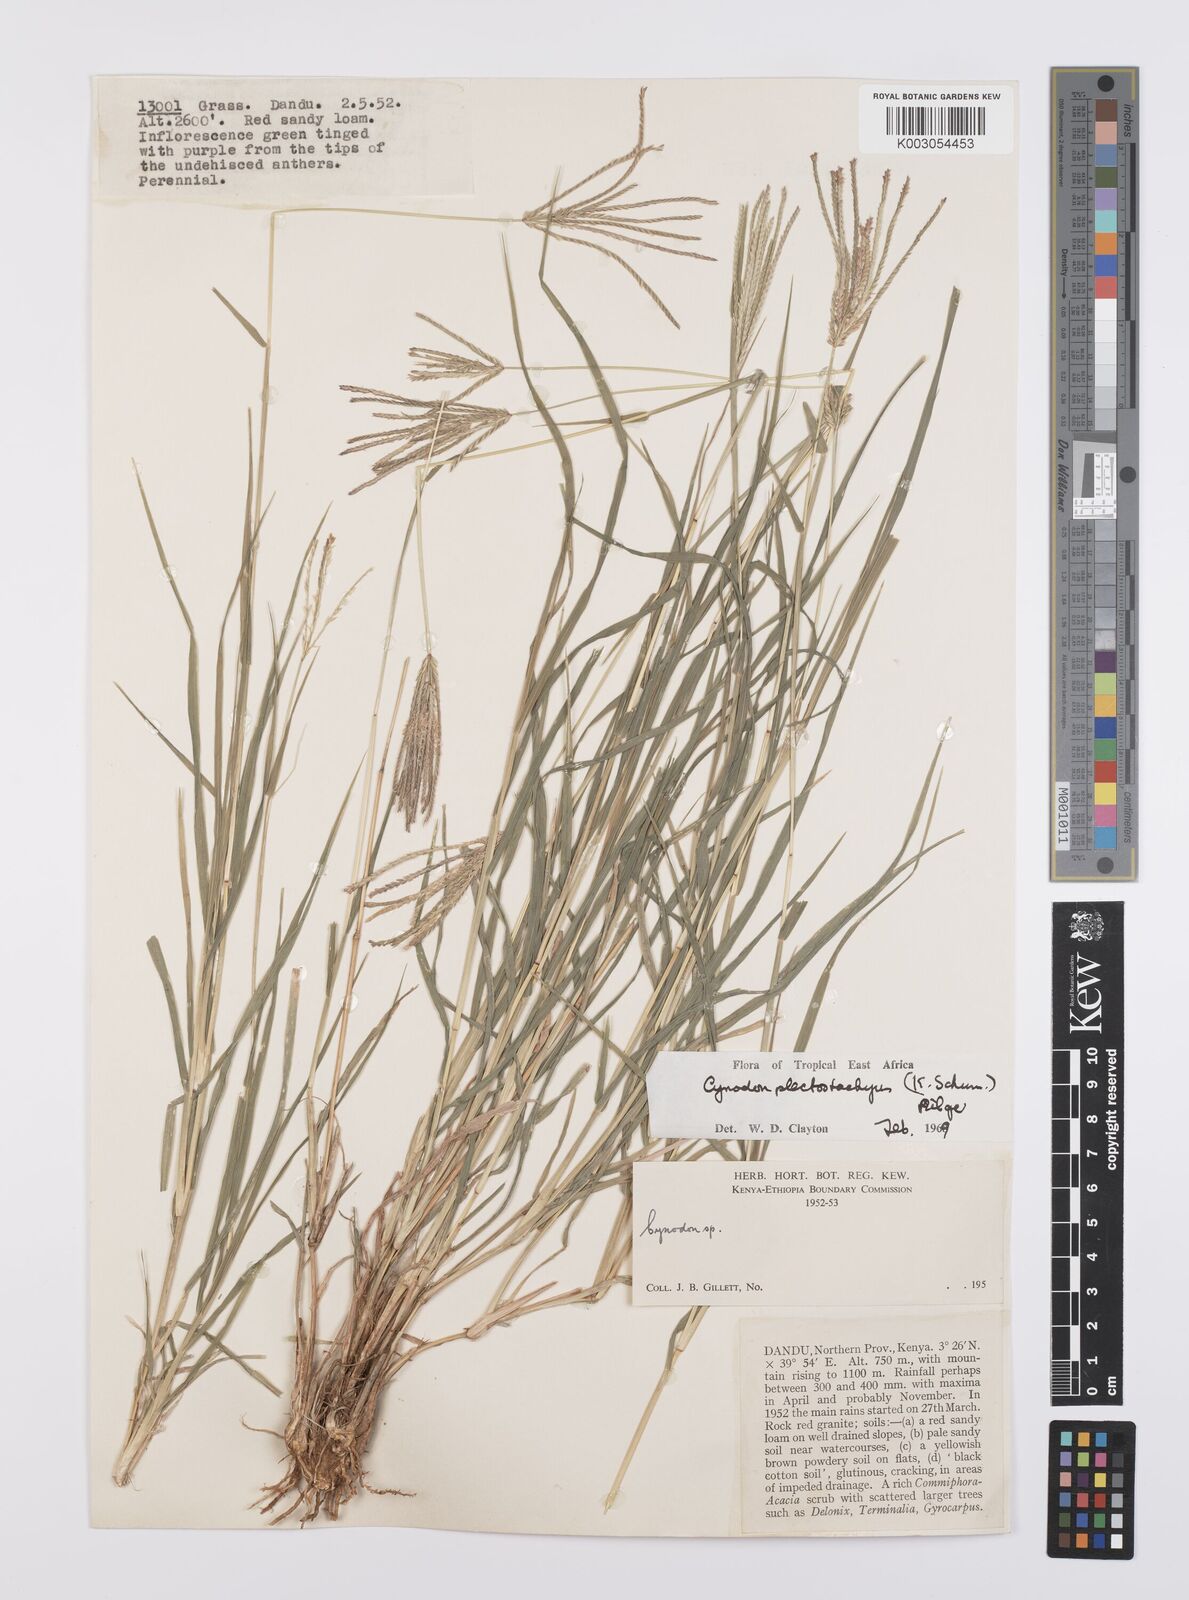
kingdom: Plantae
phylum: Tracheophyta
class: Liliopsida
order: Poales
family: Poaceae
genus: Cynodon
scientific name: Cynodon plectostachyus
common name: Stargrass
